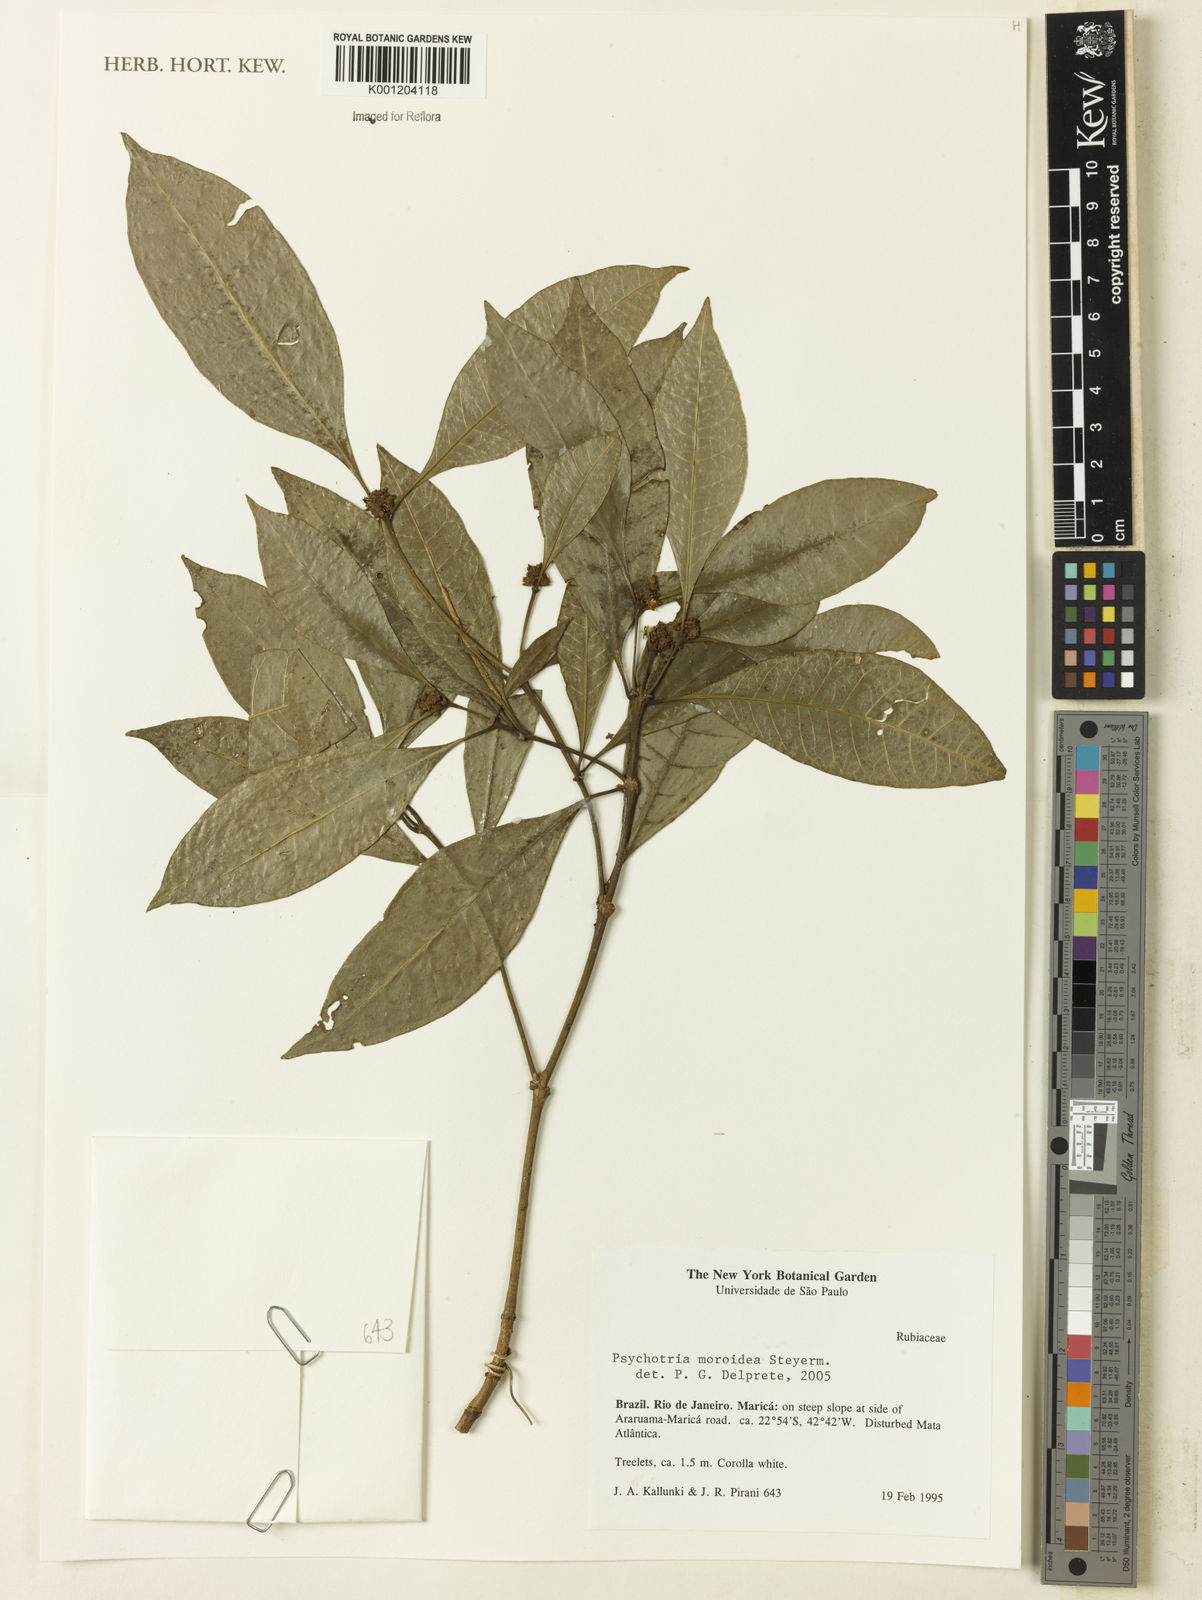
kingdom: Plantae
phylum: Tracheophyta
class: Magnoliopsida
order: Gentianales
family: Rubiaceae
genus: Eumachia
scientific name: Eumachia guianensis
